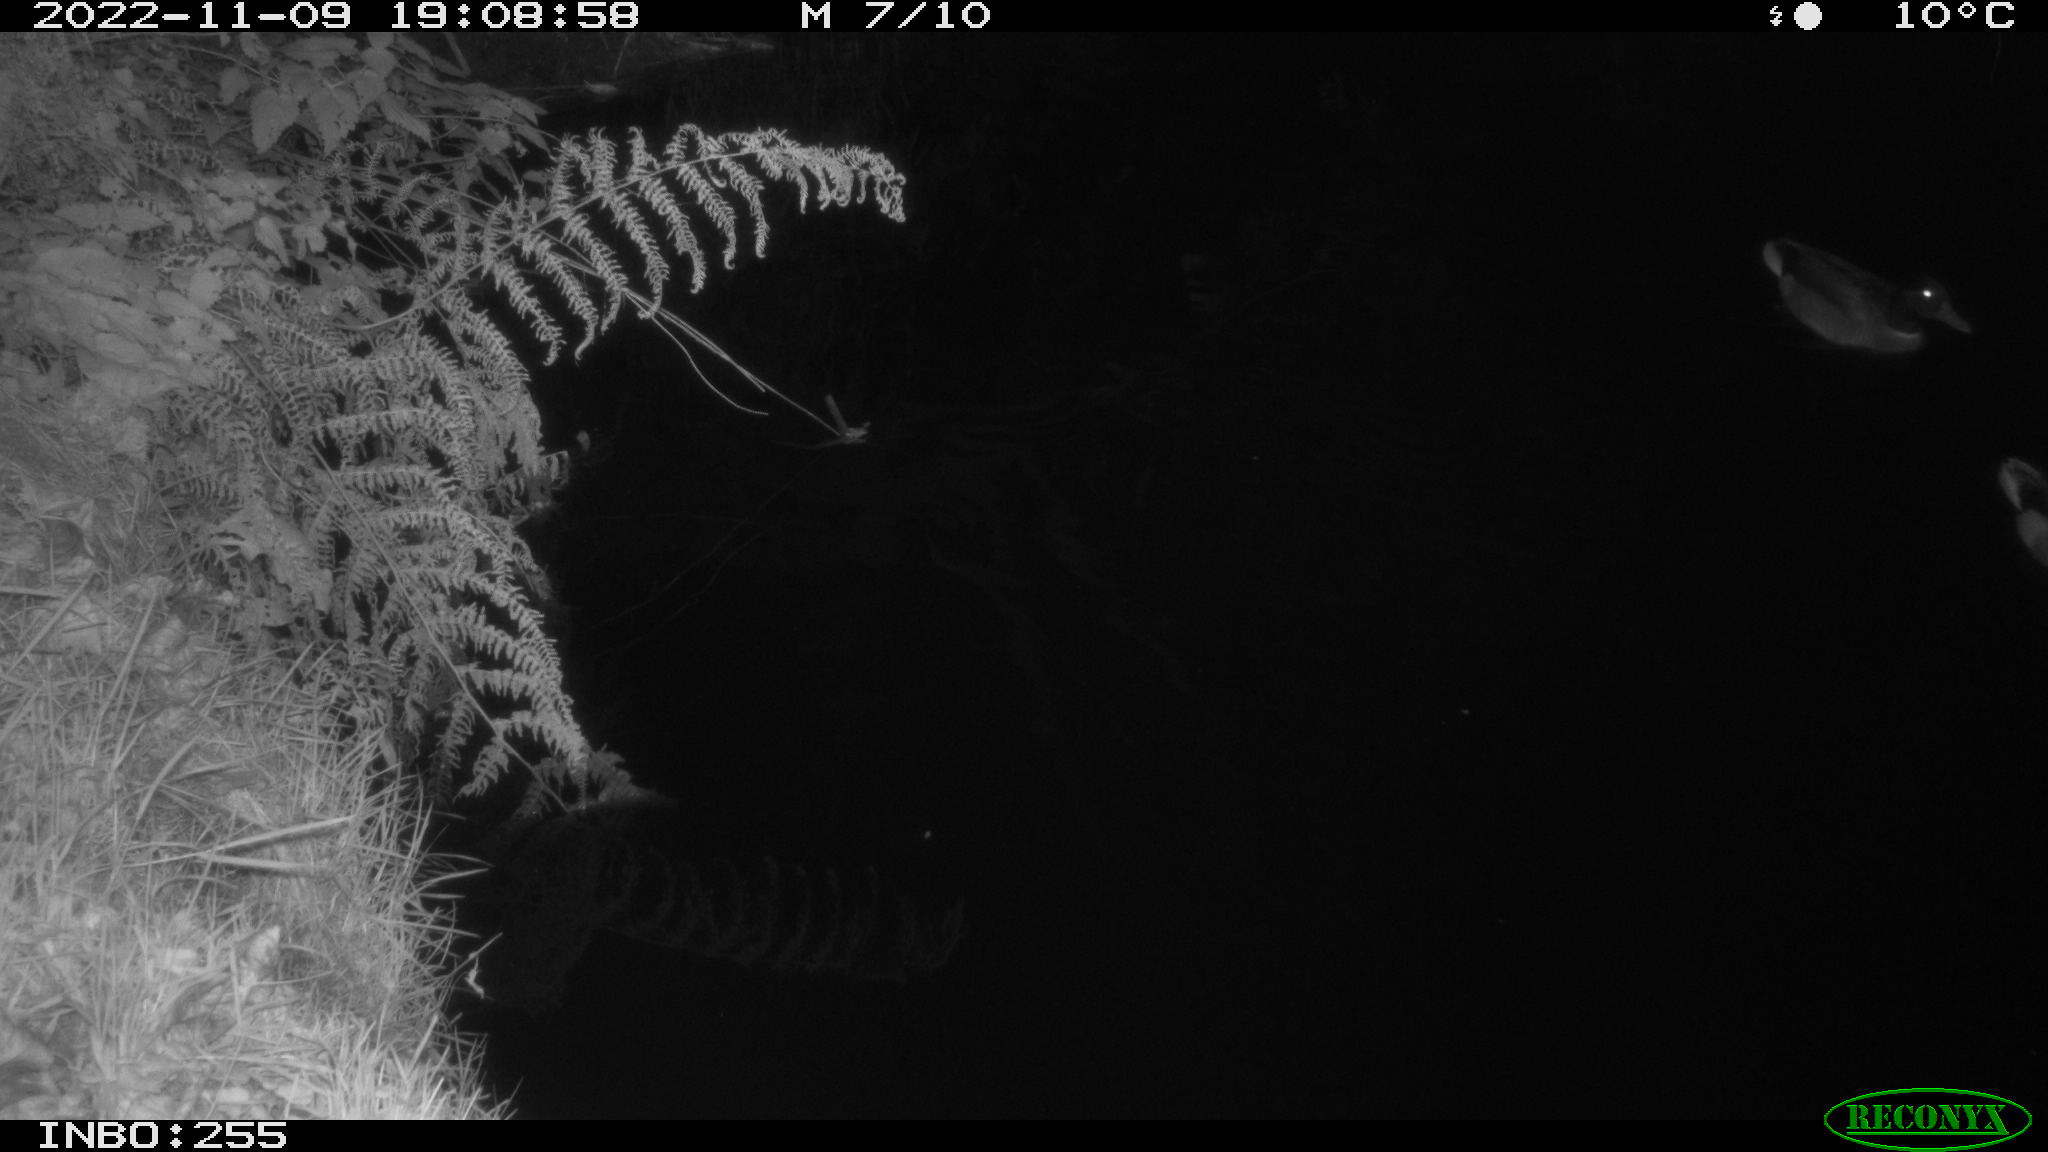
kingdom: Animalia
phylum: Chordata
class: Aves
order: Anseriformes
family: Anatidae
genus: Anas
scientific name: Anas
